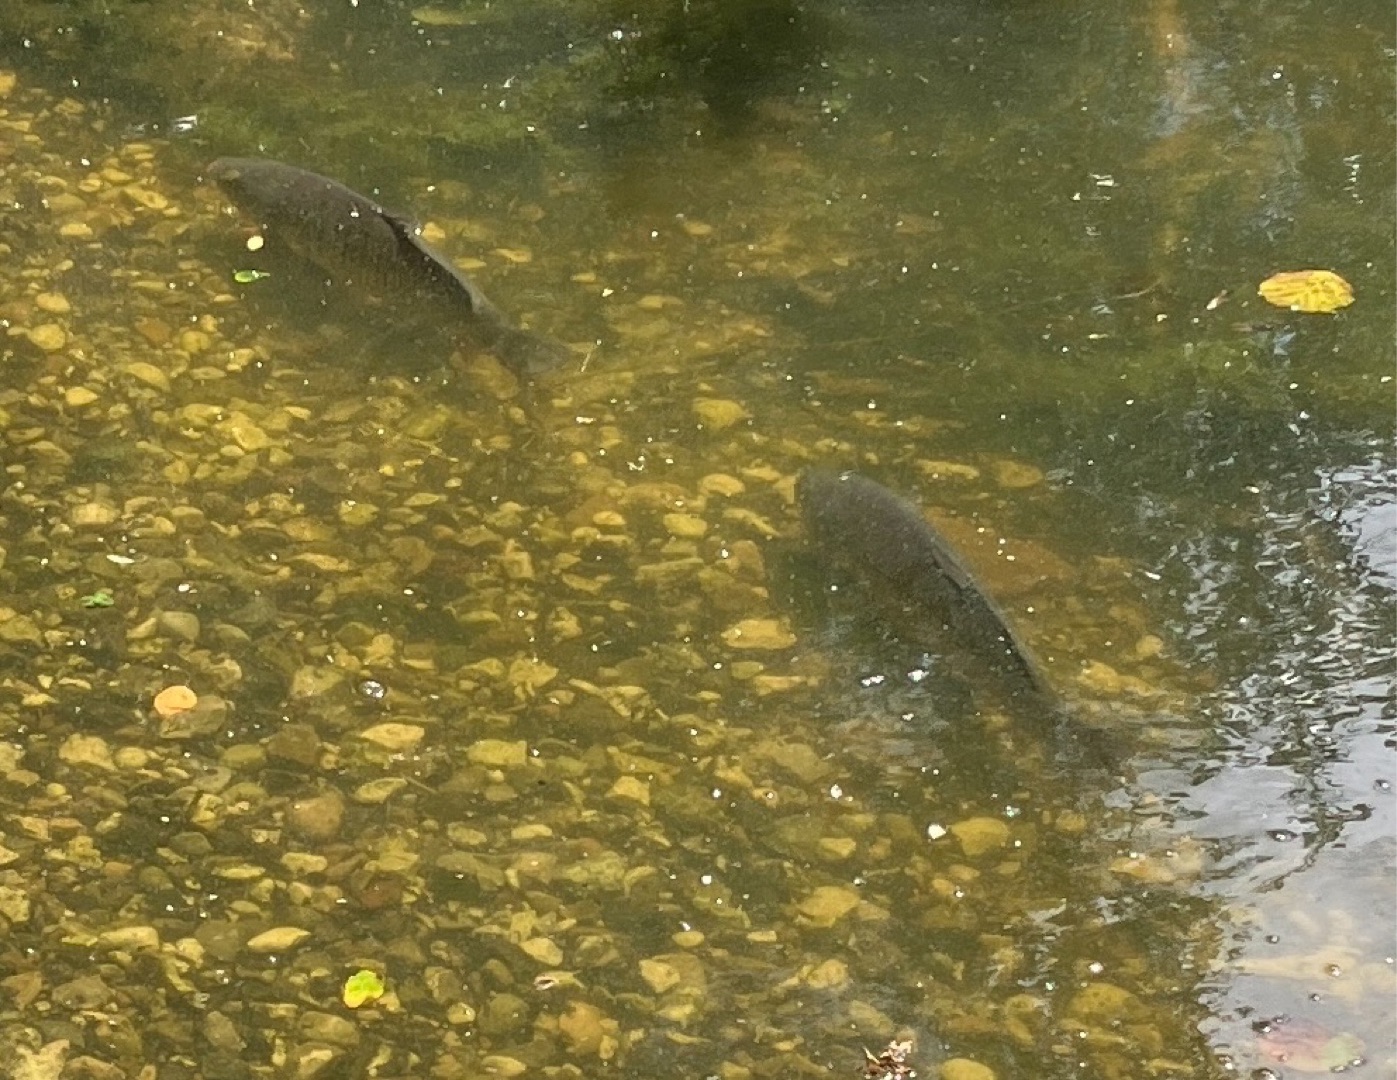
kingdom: Animalia
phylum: Chordata
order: Cypriniformes
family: Cyprinidae
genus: Cyprinus
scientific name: Cyprinus carpio
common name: Karpe
